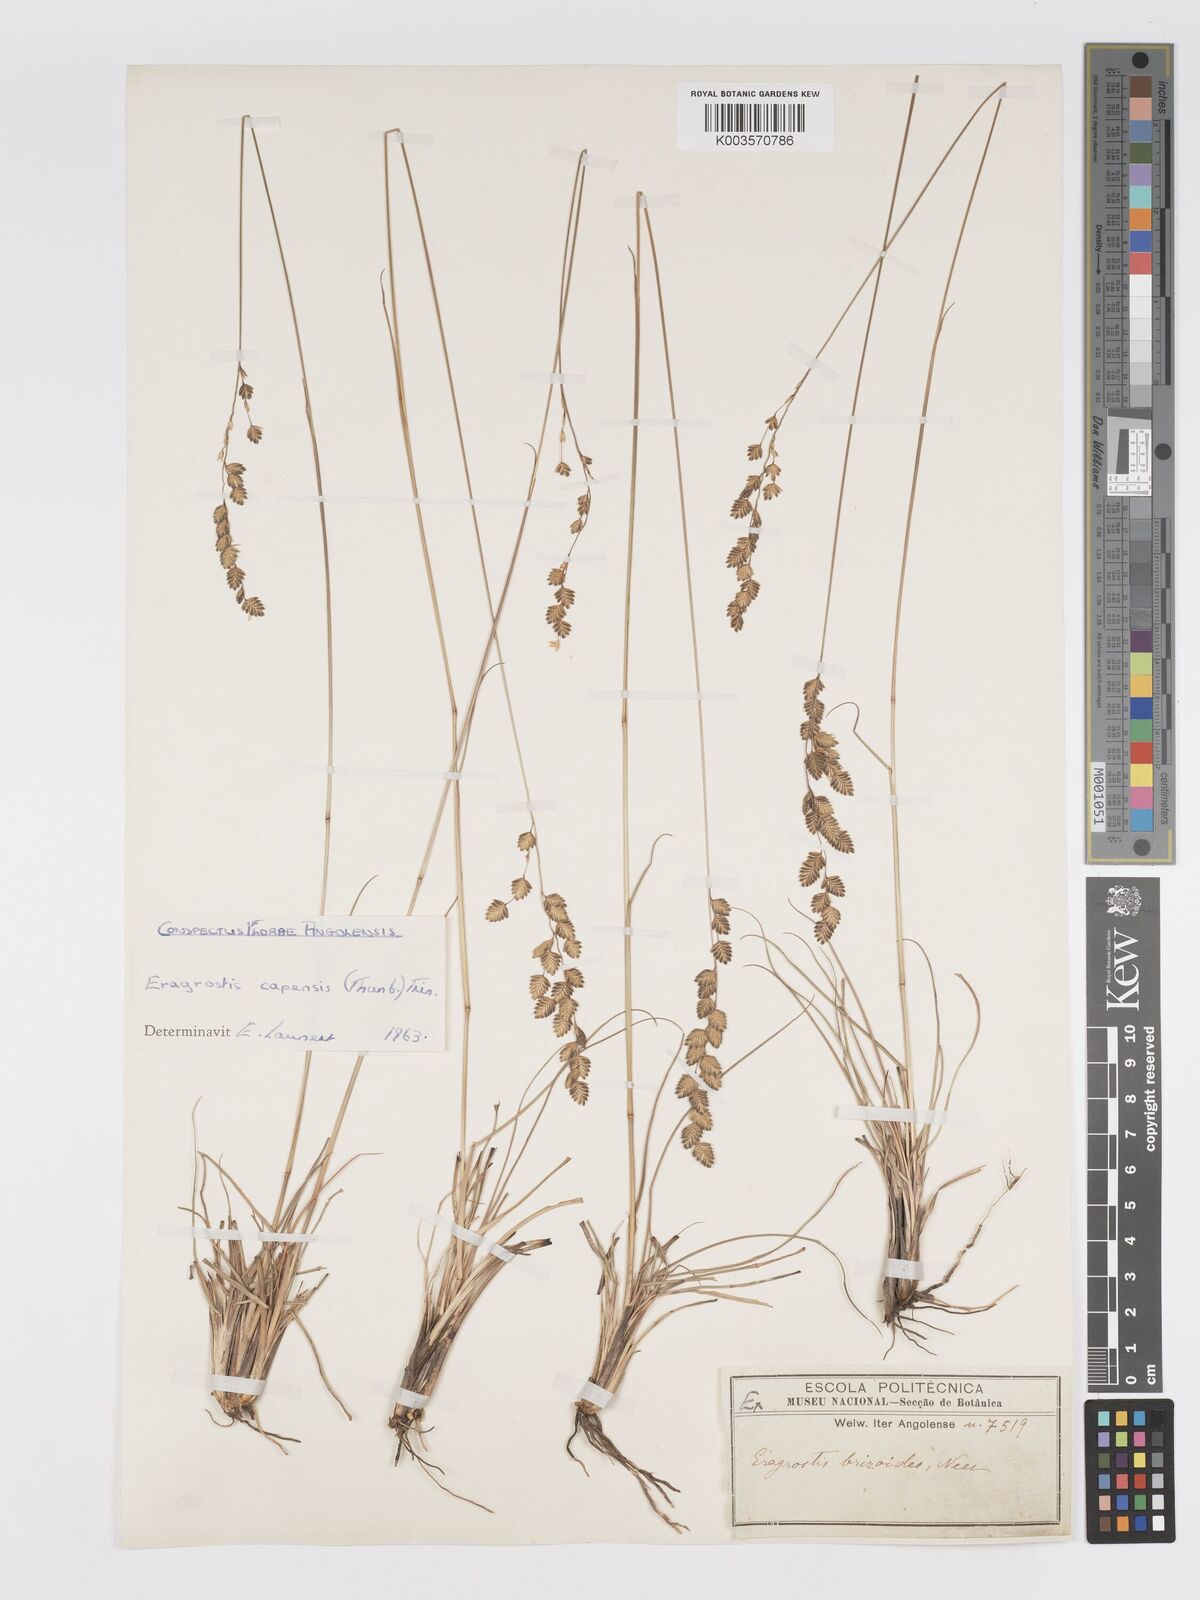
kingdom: Plantae
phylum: Tracheophyta
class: Liliopsida
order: Poales
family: Poaceae
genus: Eragrostis
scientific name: Eragrostis capensis
